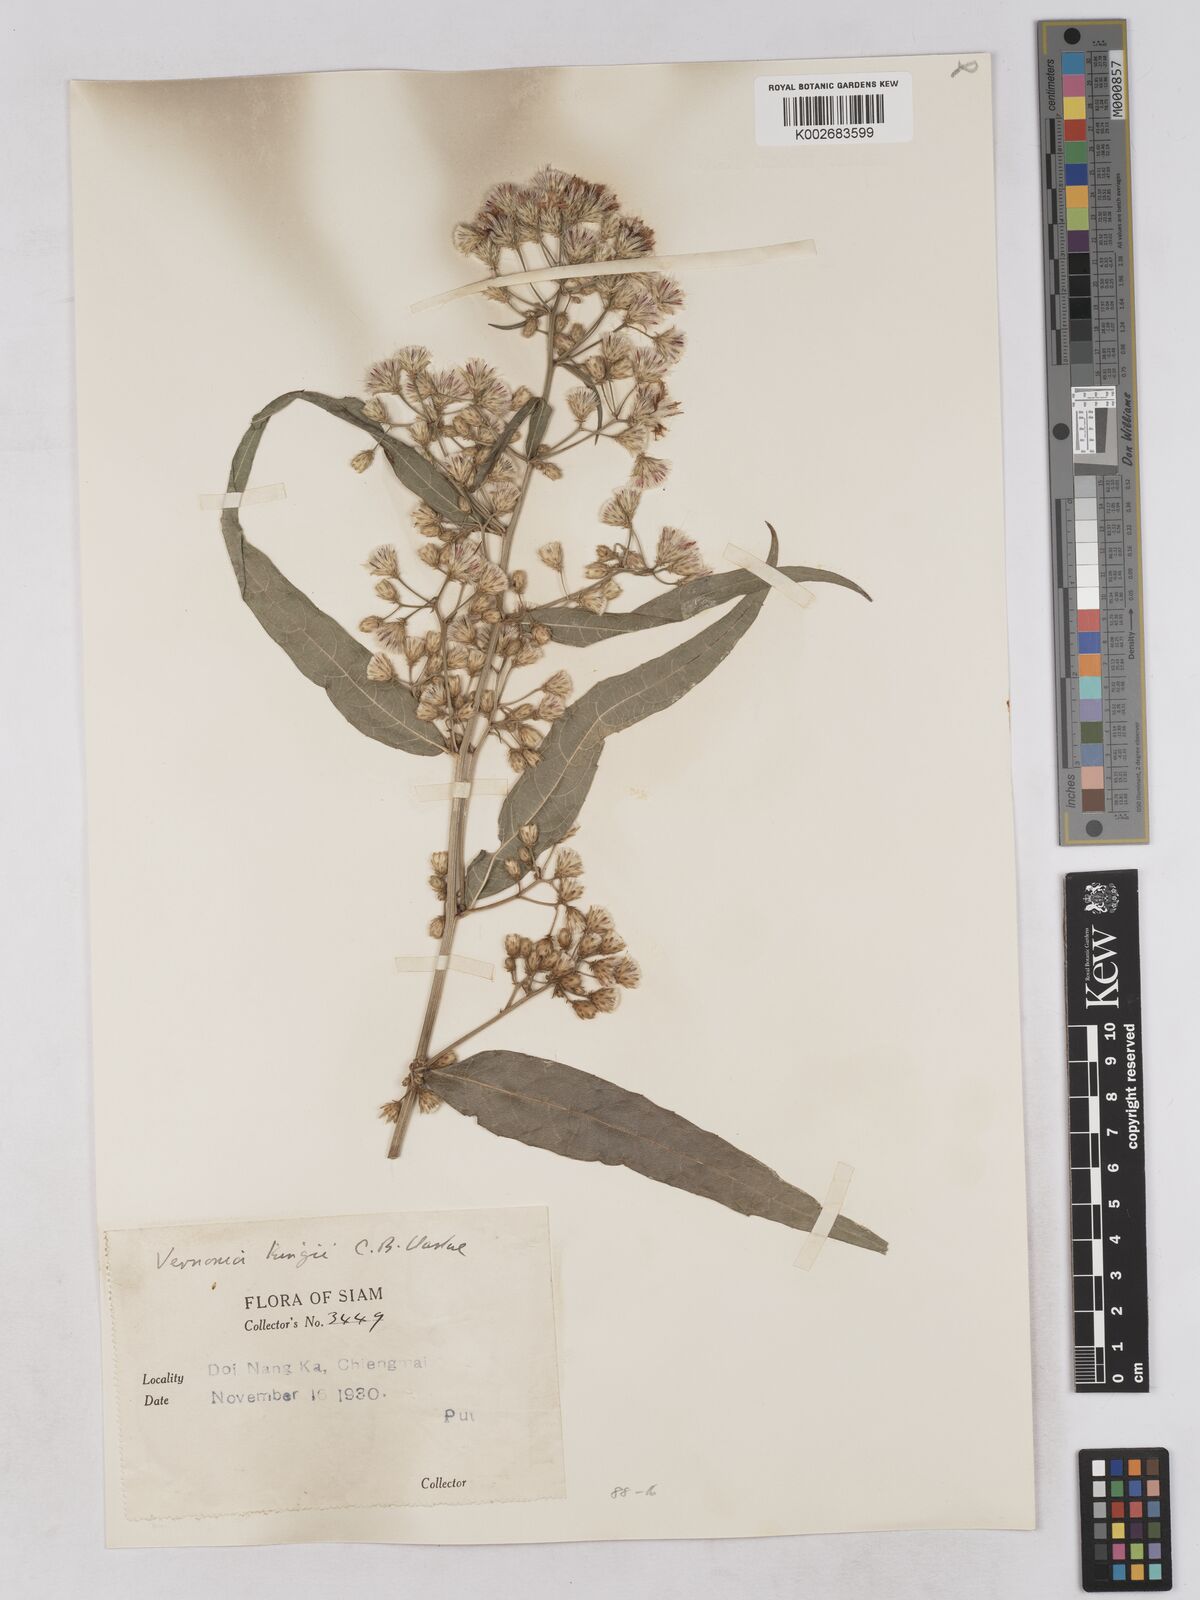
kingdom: Plantae
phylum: Tracheophyta
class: Magnoliopsida
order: Asterales
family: Asteraceae
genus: Acilepis
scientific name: Acilepis kingii
